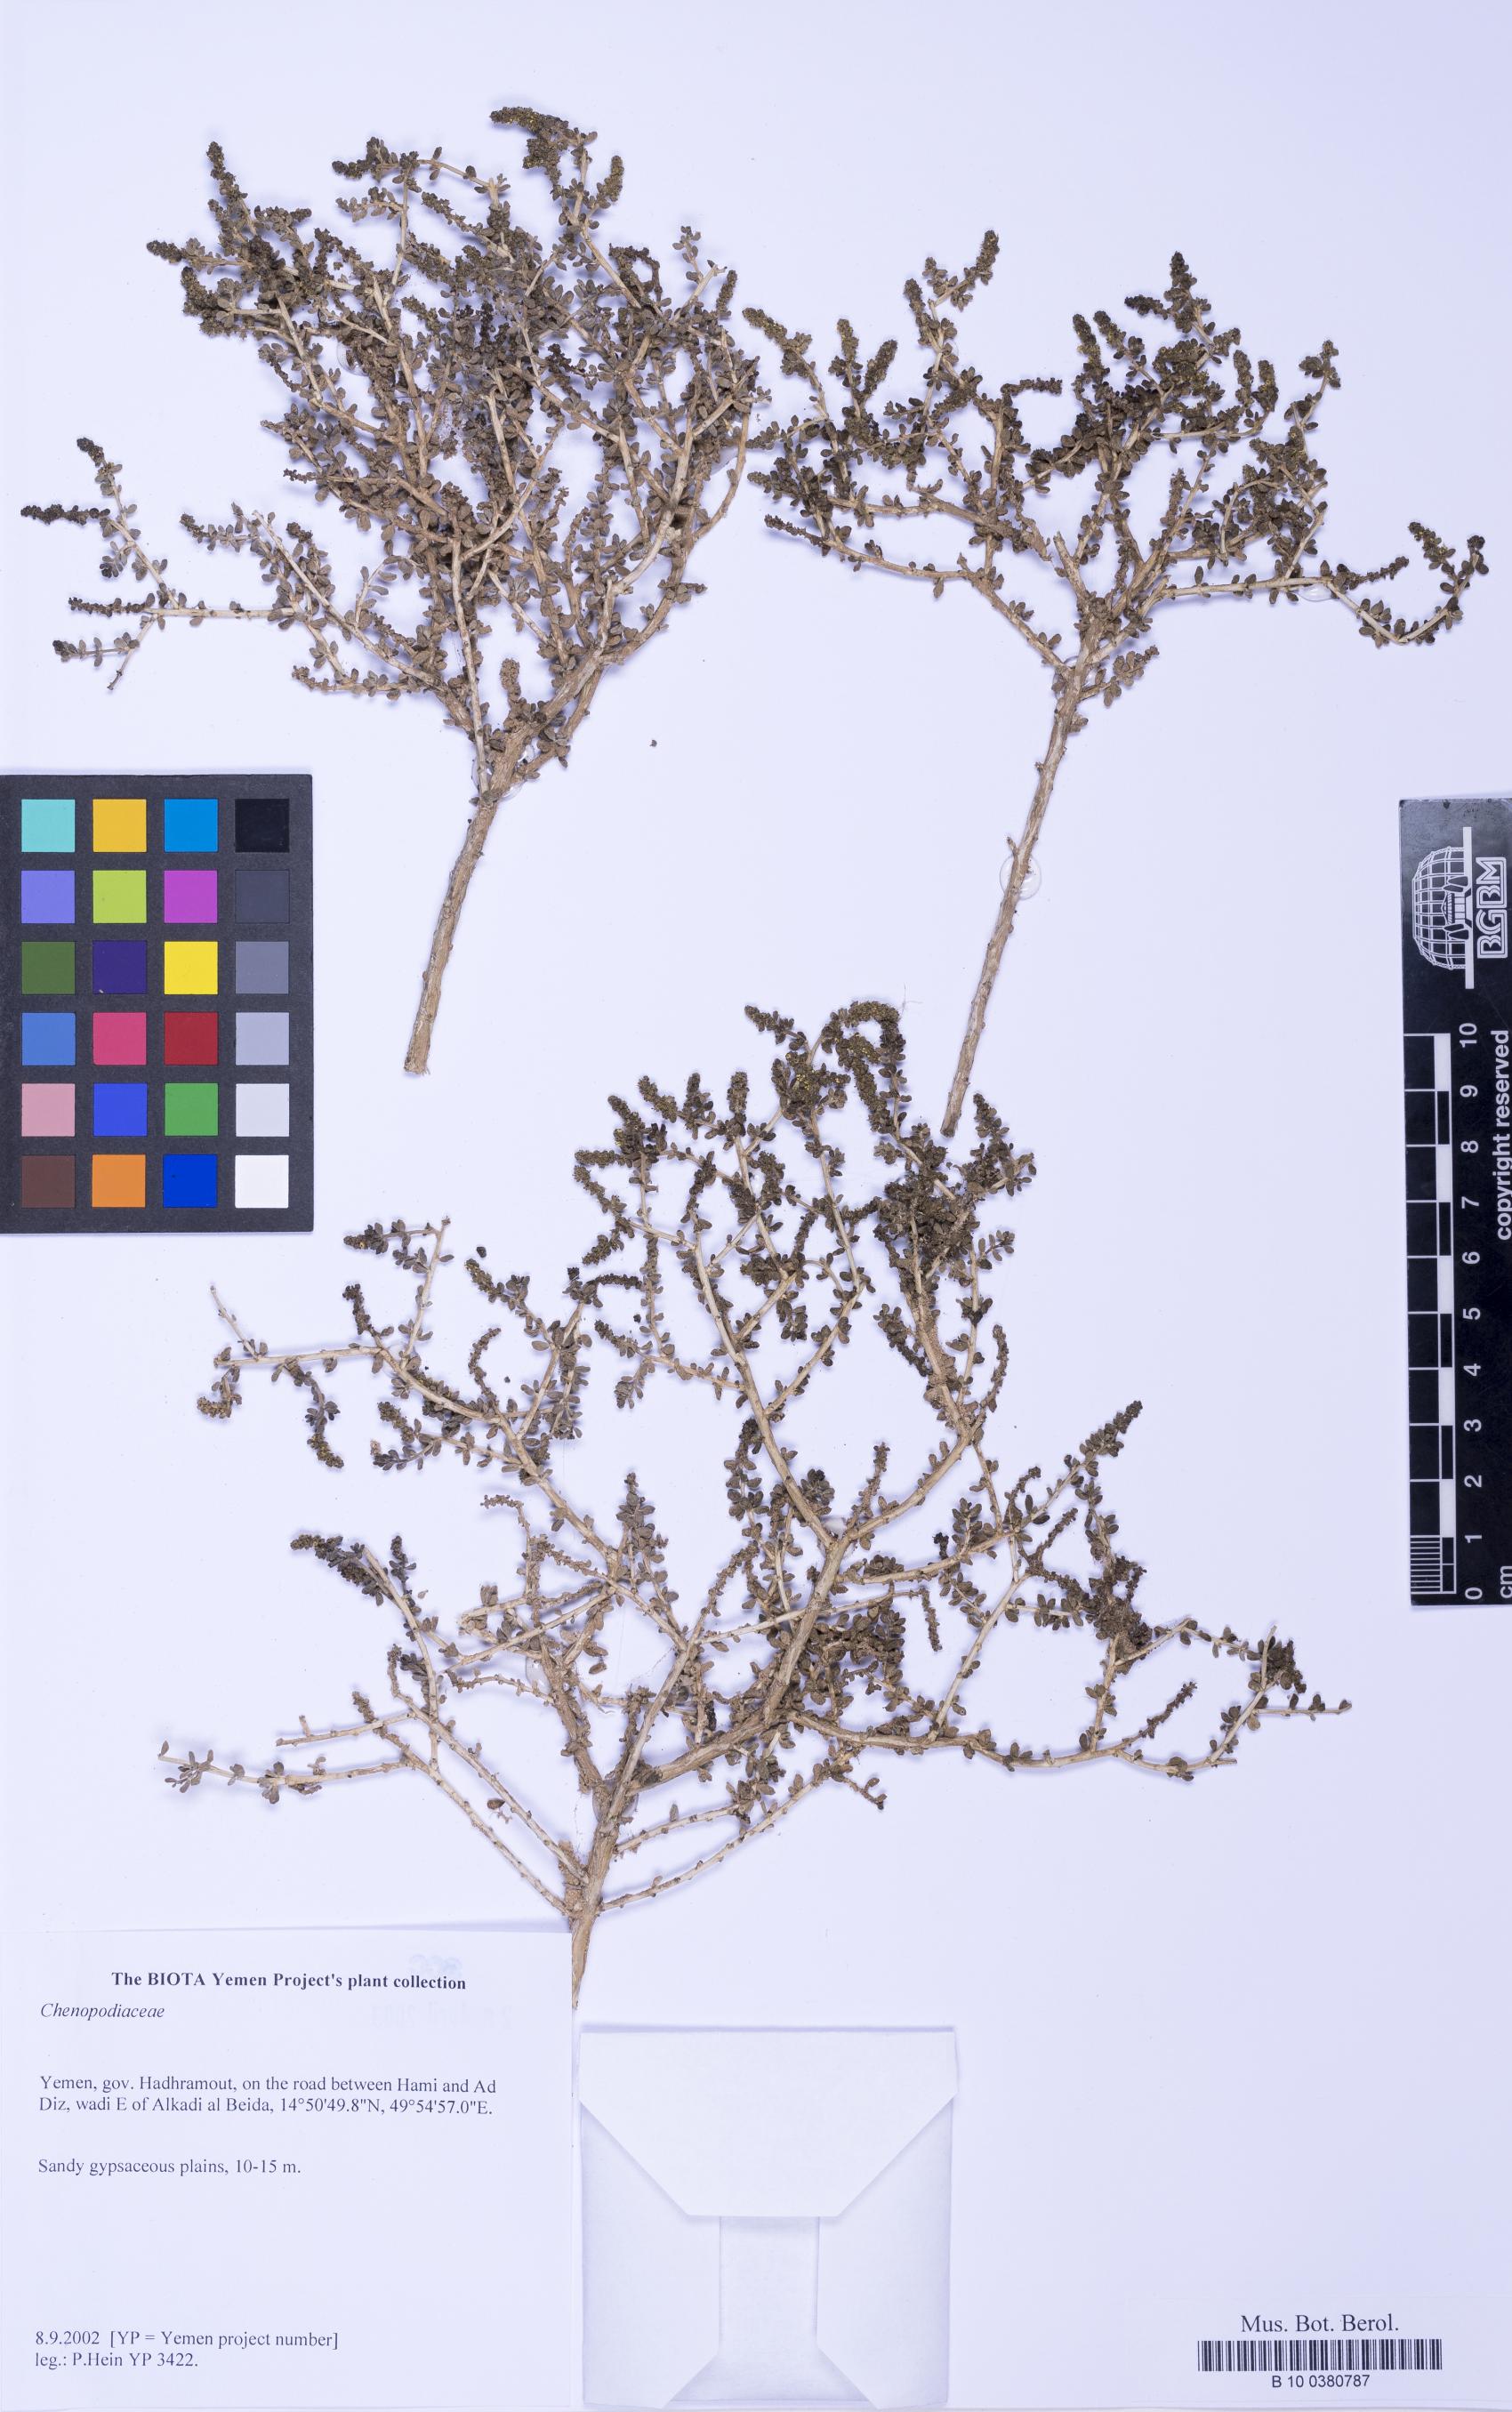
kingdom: Plantae
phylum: Tracheophyta
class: Magnoliopsida
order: Caryophyllales
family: Amaranthaceae
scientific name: Amaranthaceae
